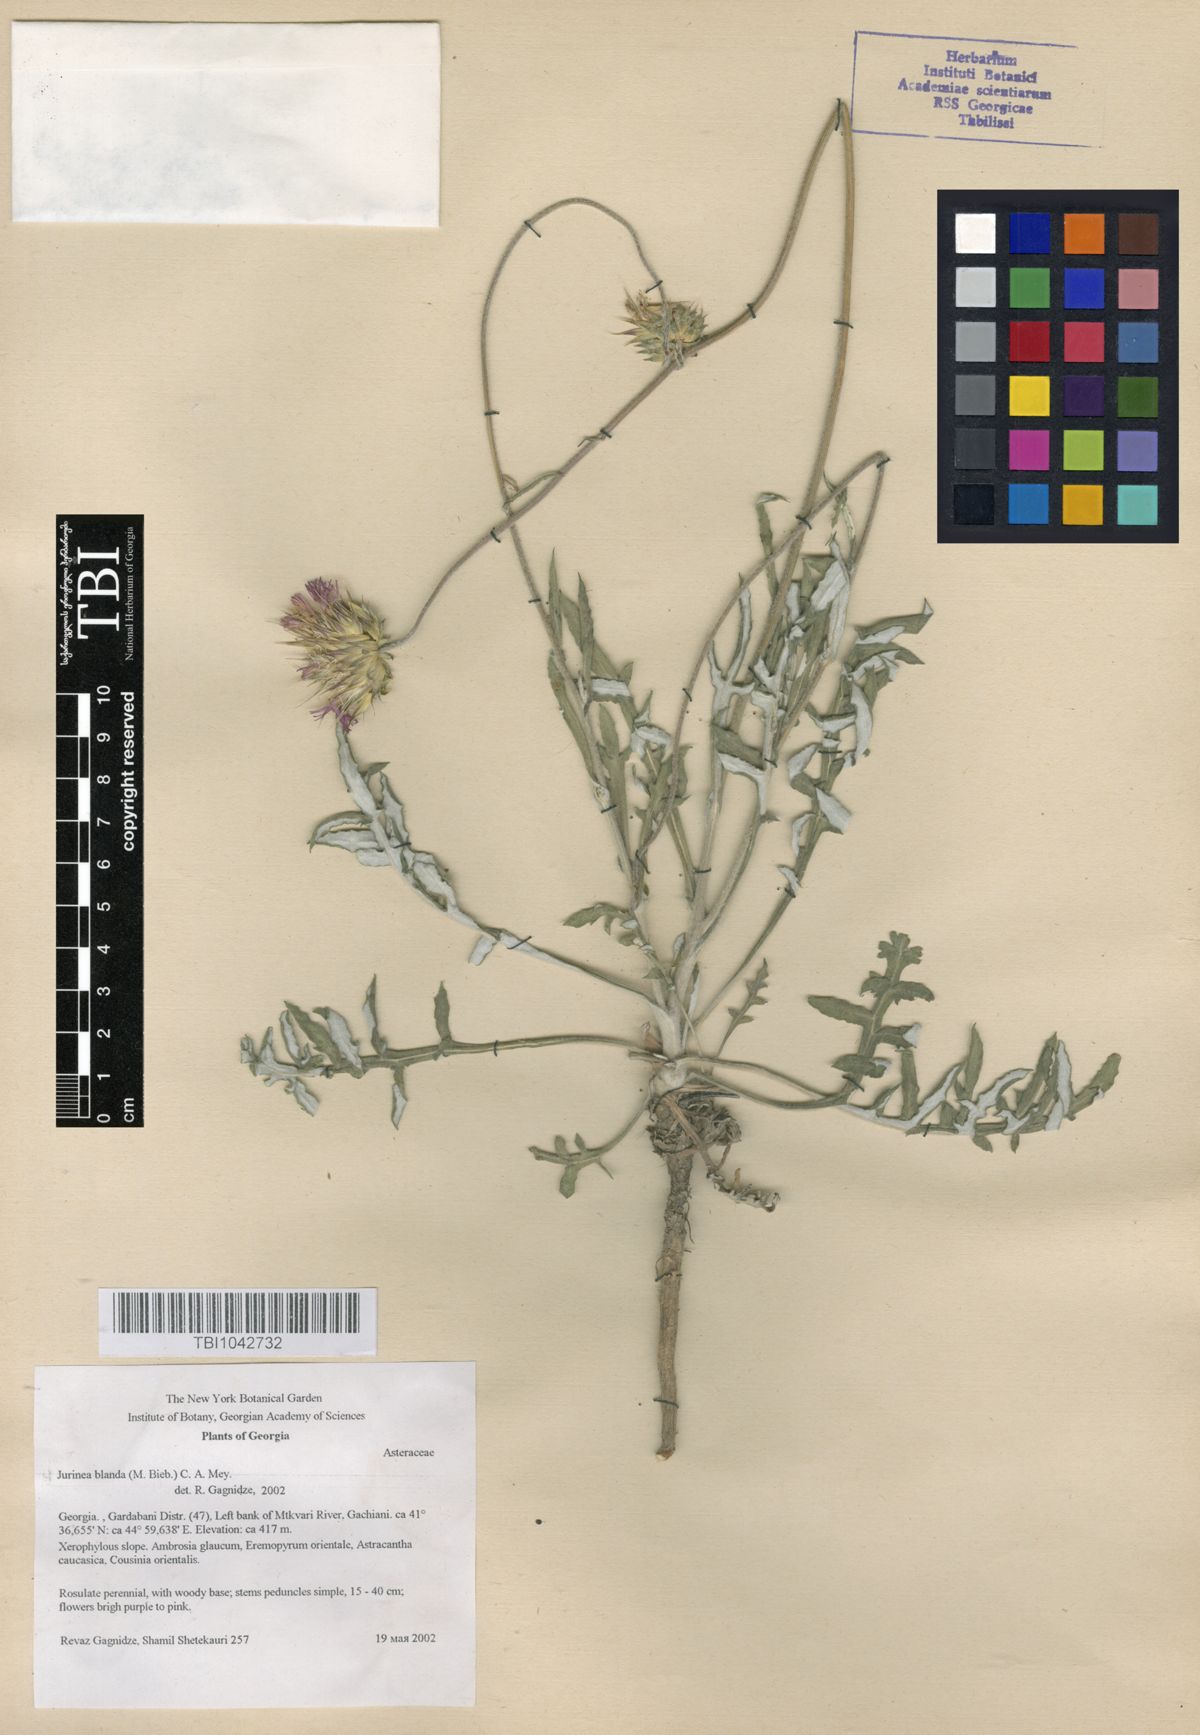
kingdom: Plantae
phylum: Tracheophyta
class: Magnoliopsida
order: Asterales
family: Asteraceae
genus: Jurinea
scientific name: Jurinea blanda
